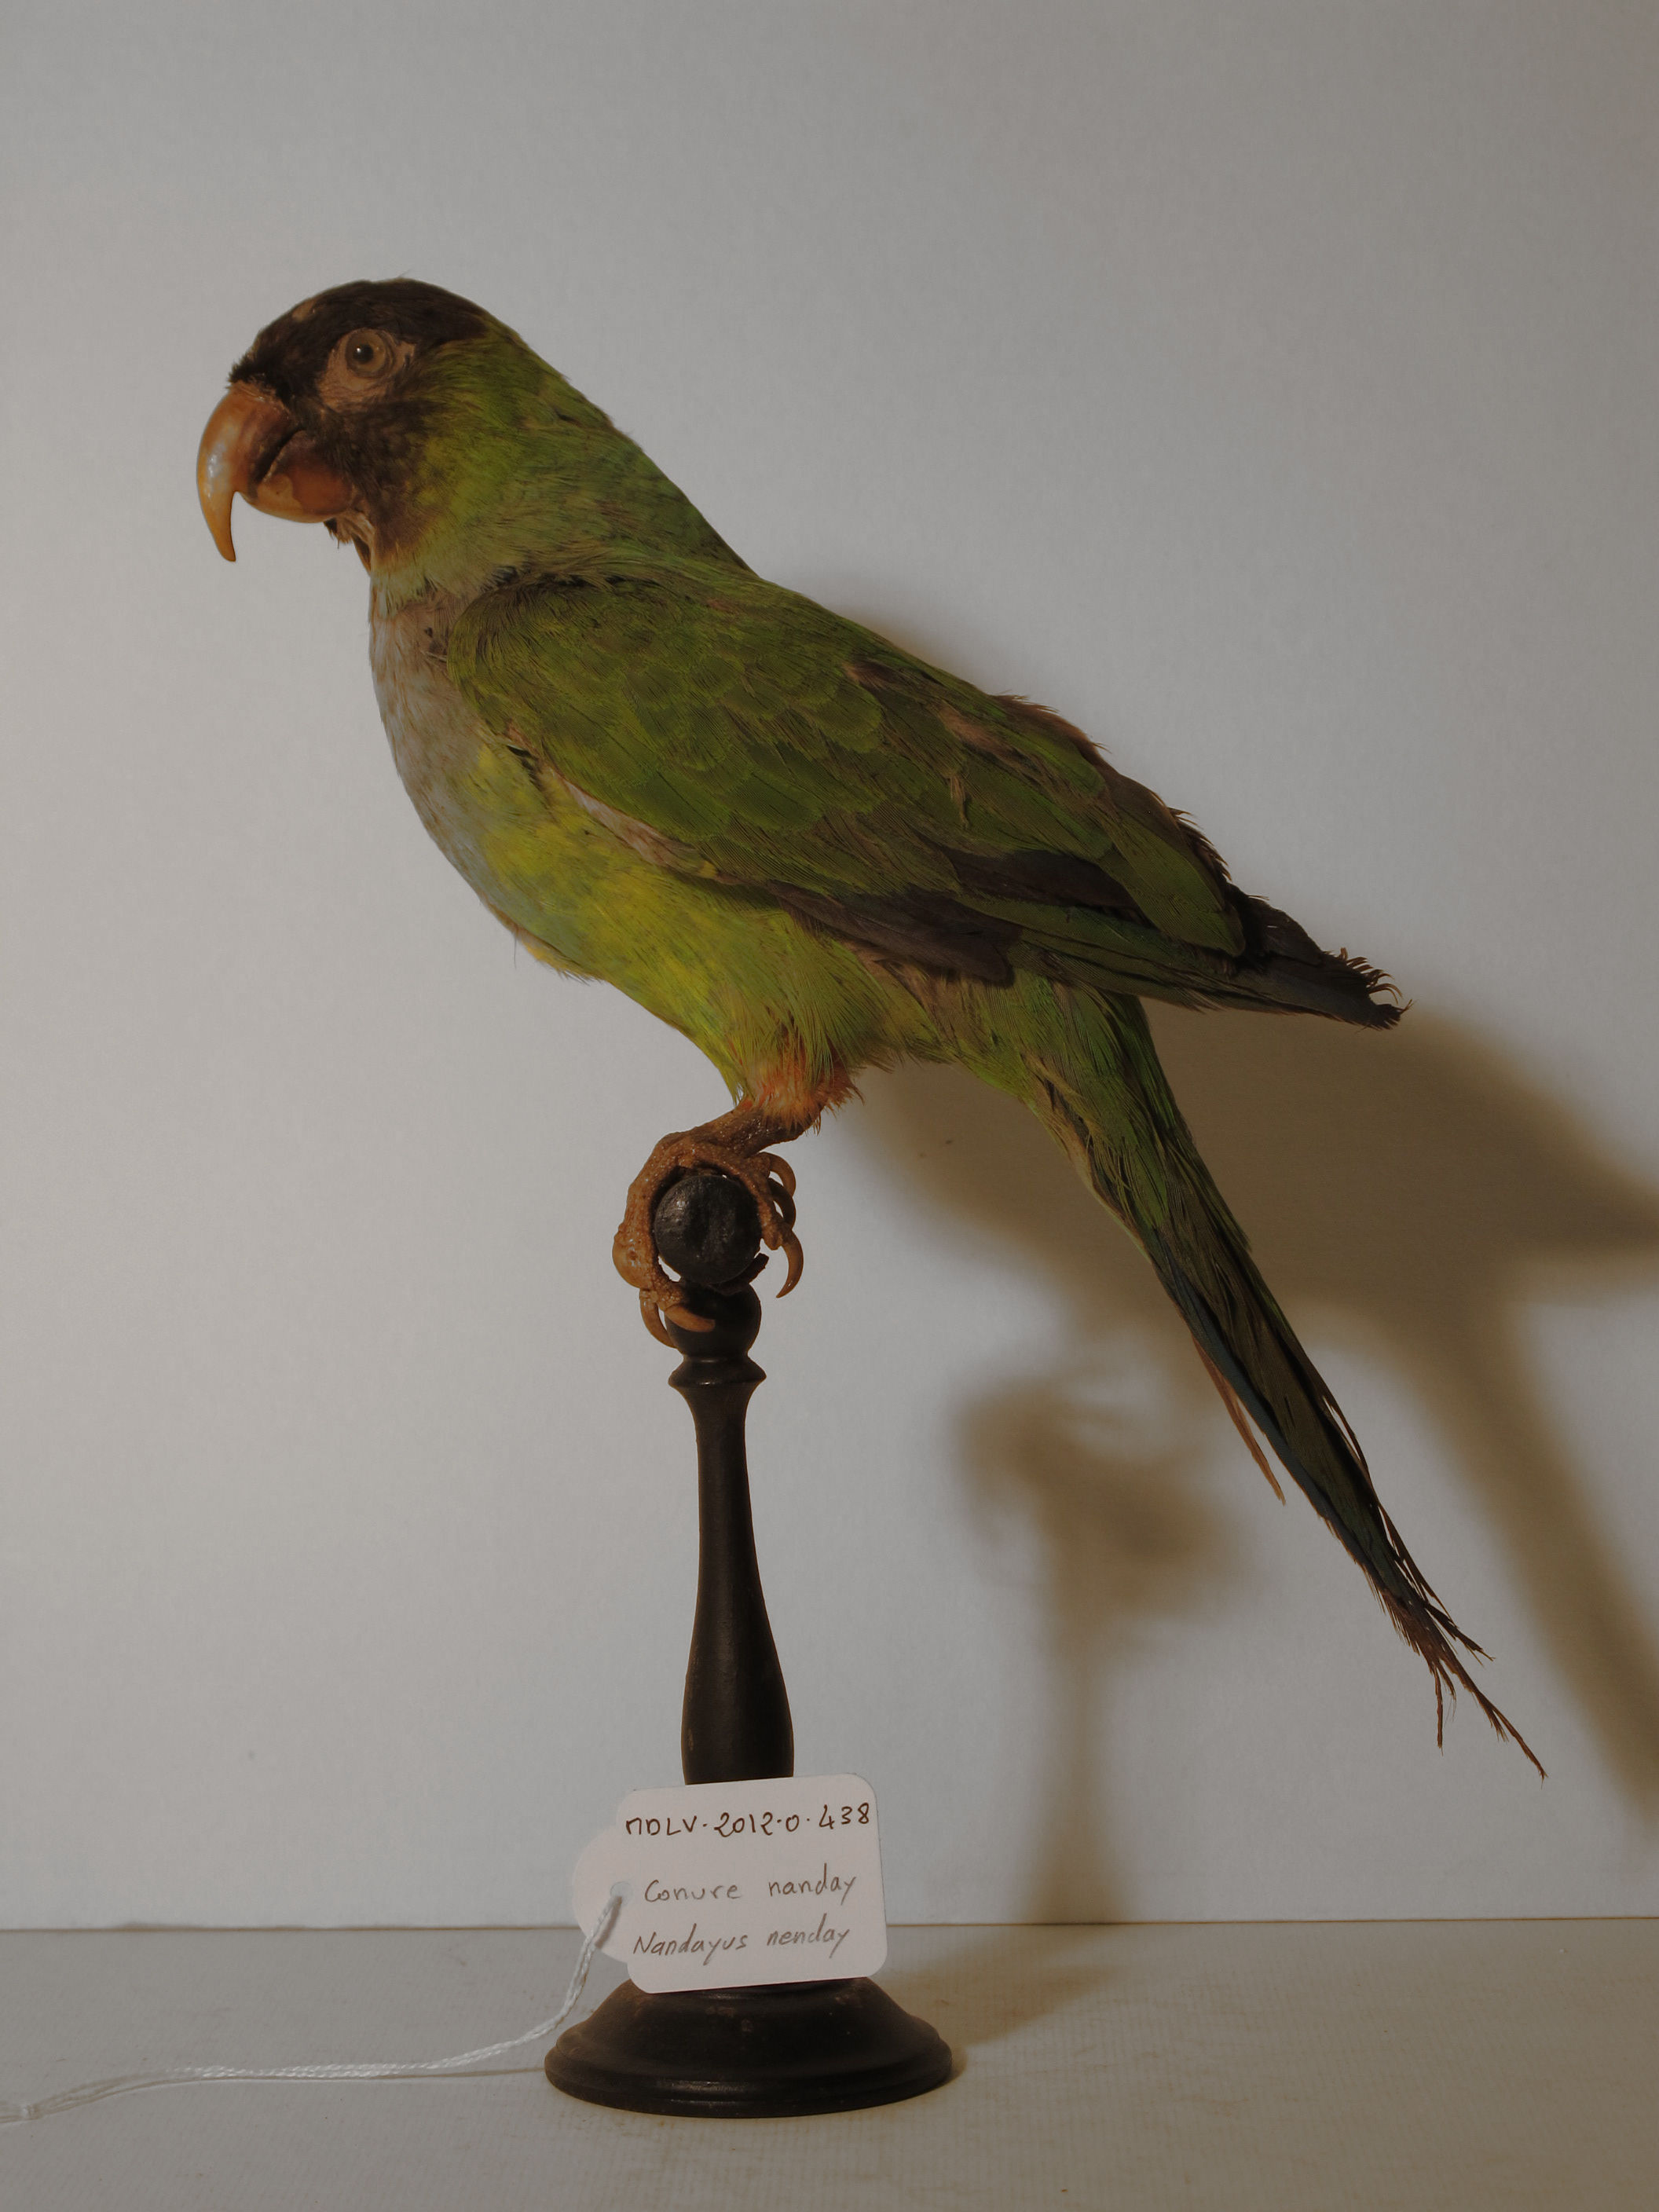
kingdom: Animalia
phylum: Chordata
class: Aves
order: Psittaciformes
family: Psittacidae
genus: Nandayus
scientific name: Nandayus nenday
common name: Nanday Parakeet
